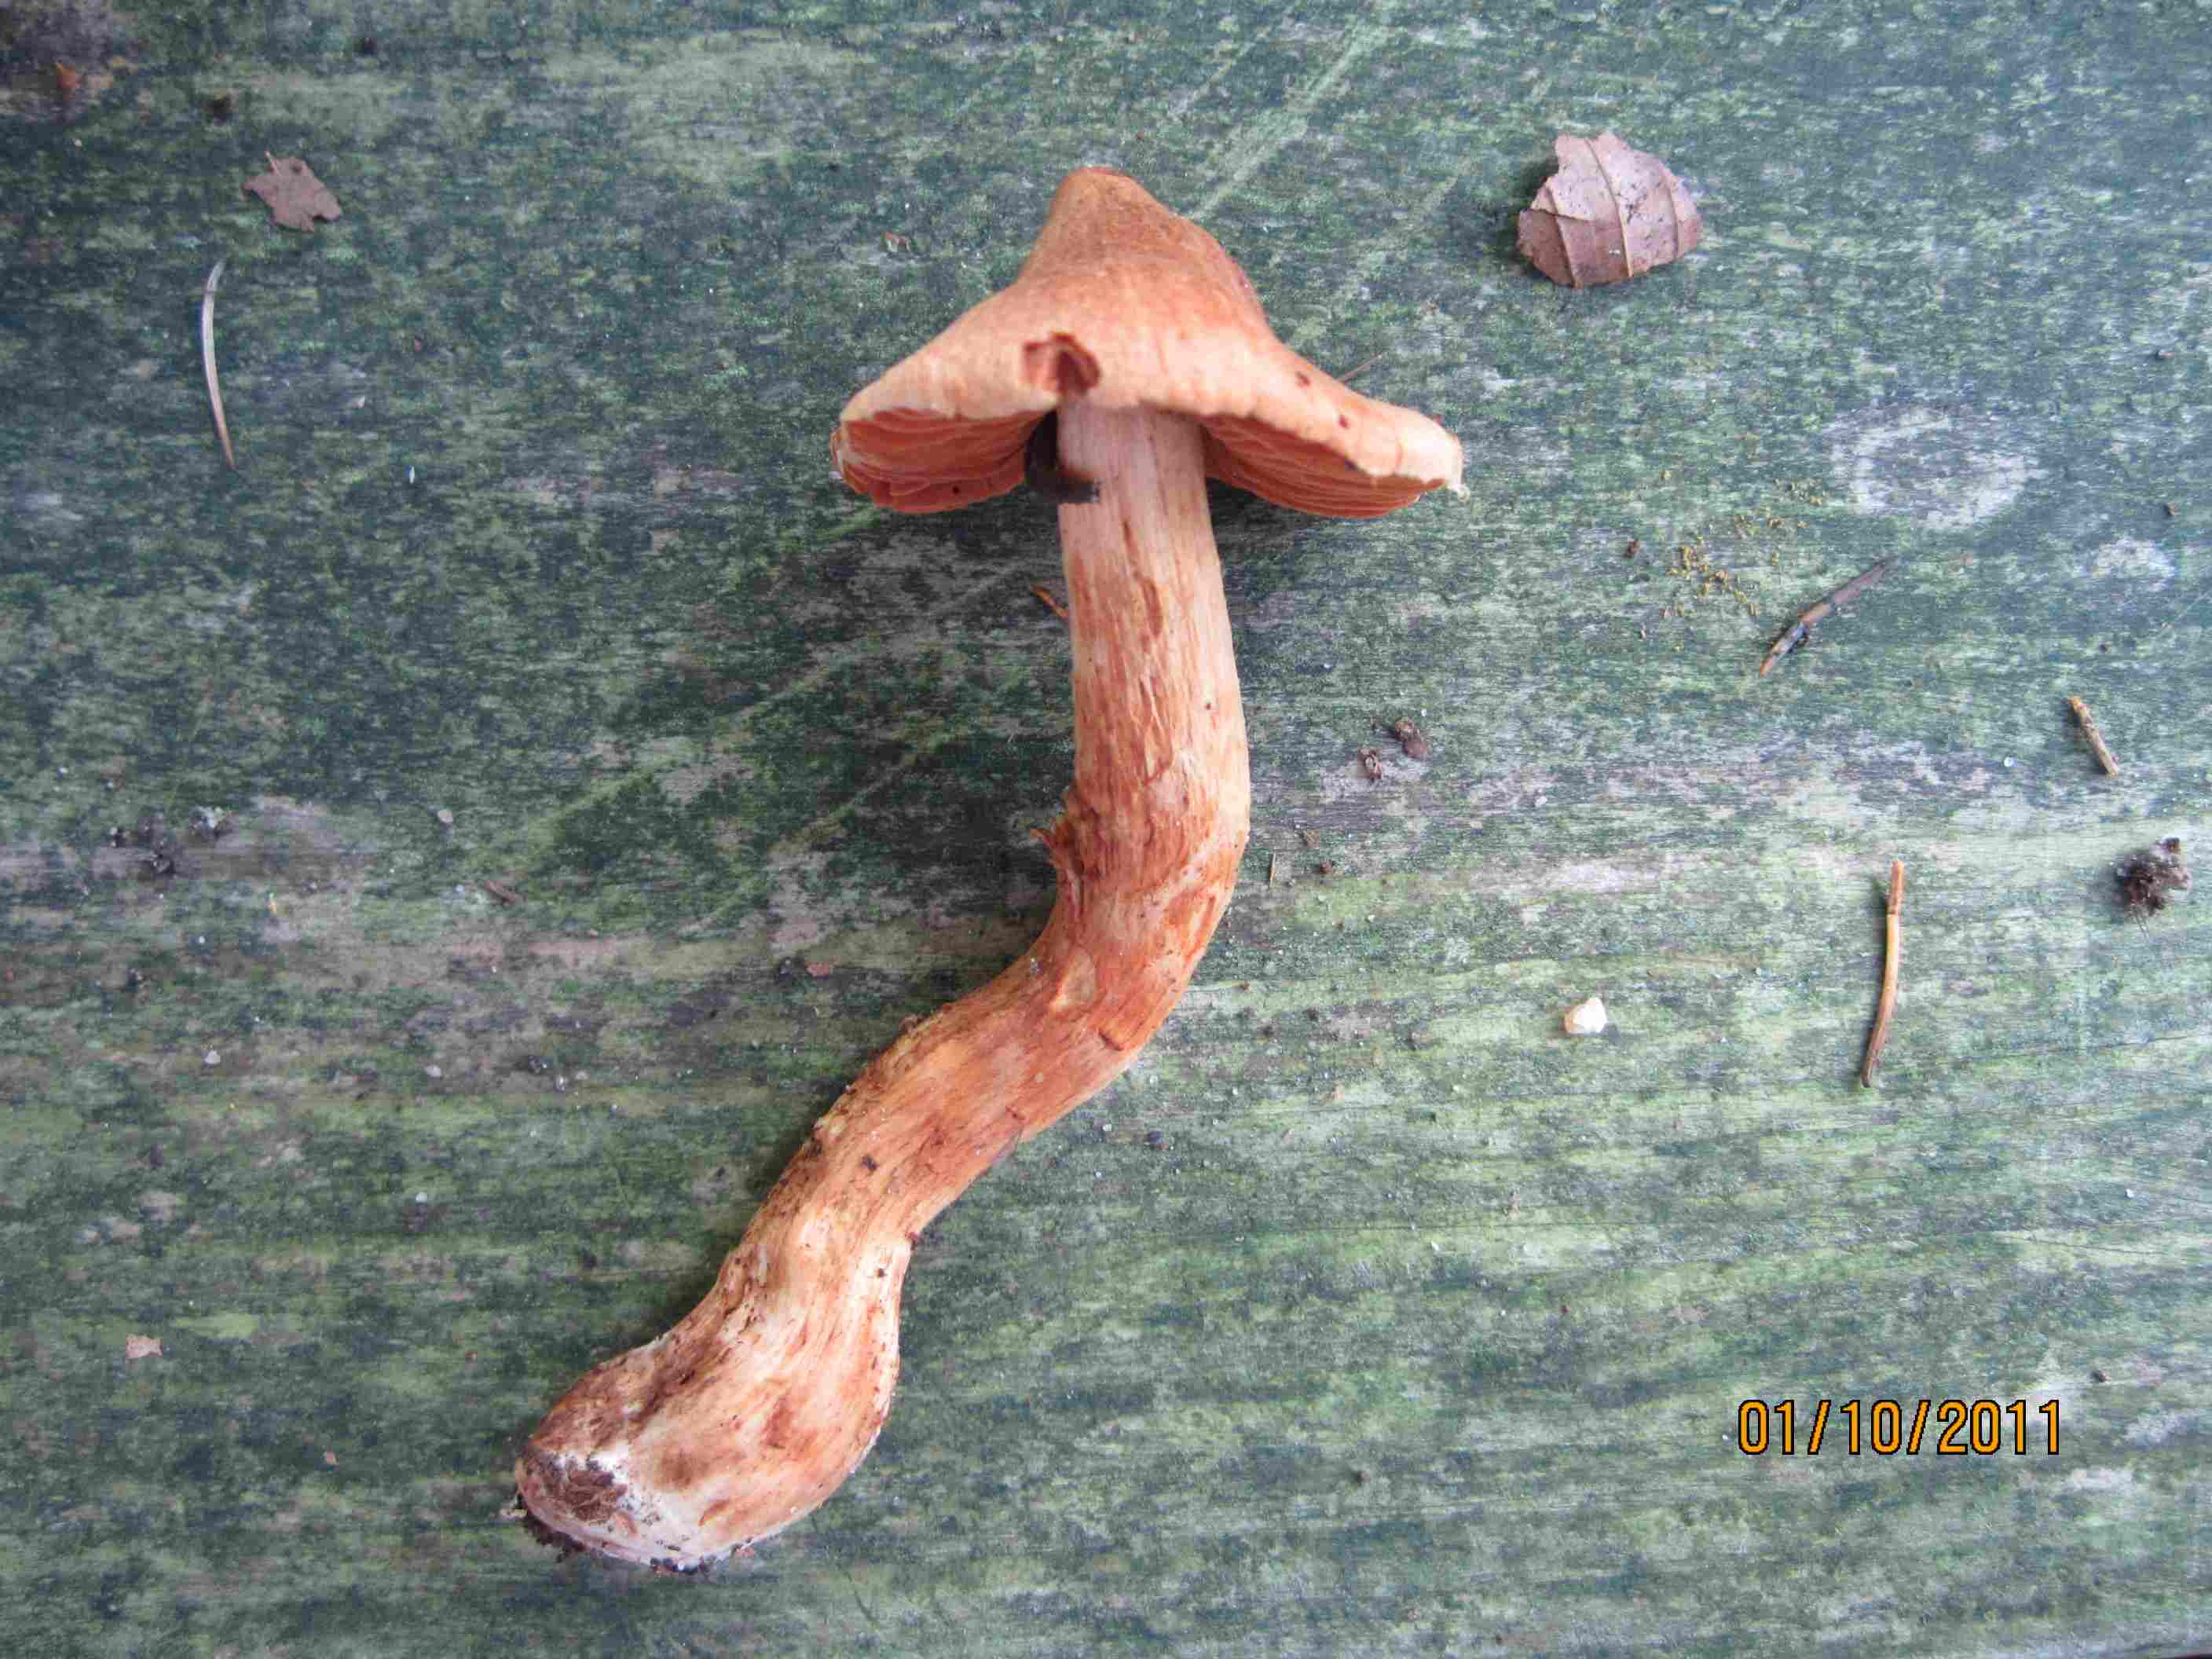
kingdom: Fungi
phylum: Basidiomycota
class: Agaricomycetes
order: Agaricales
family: Cortinariaceae
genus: Cortinarius
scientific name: Cortinarius rubellus
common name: puklet gift-slørhat
